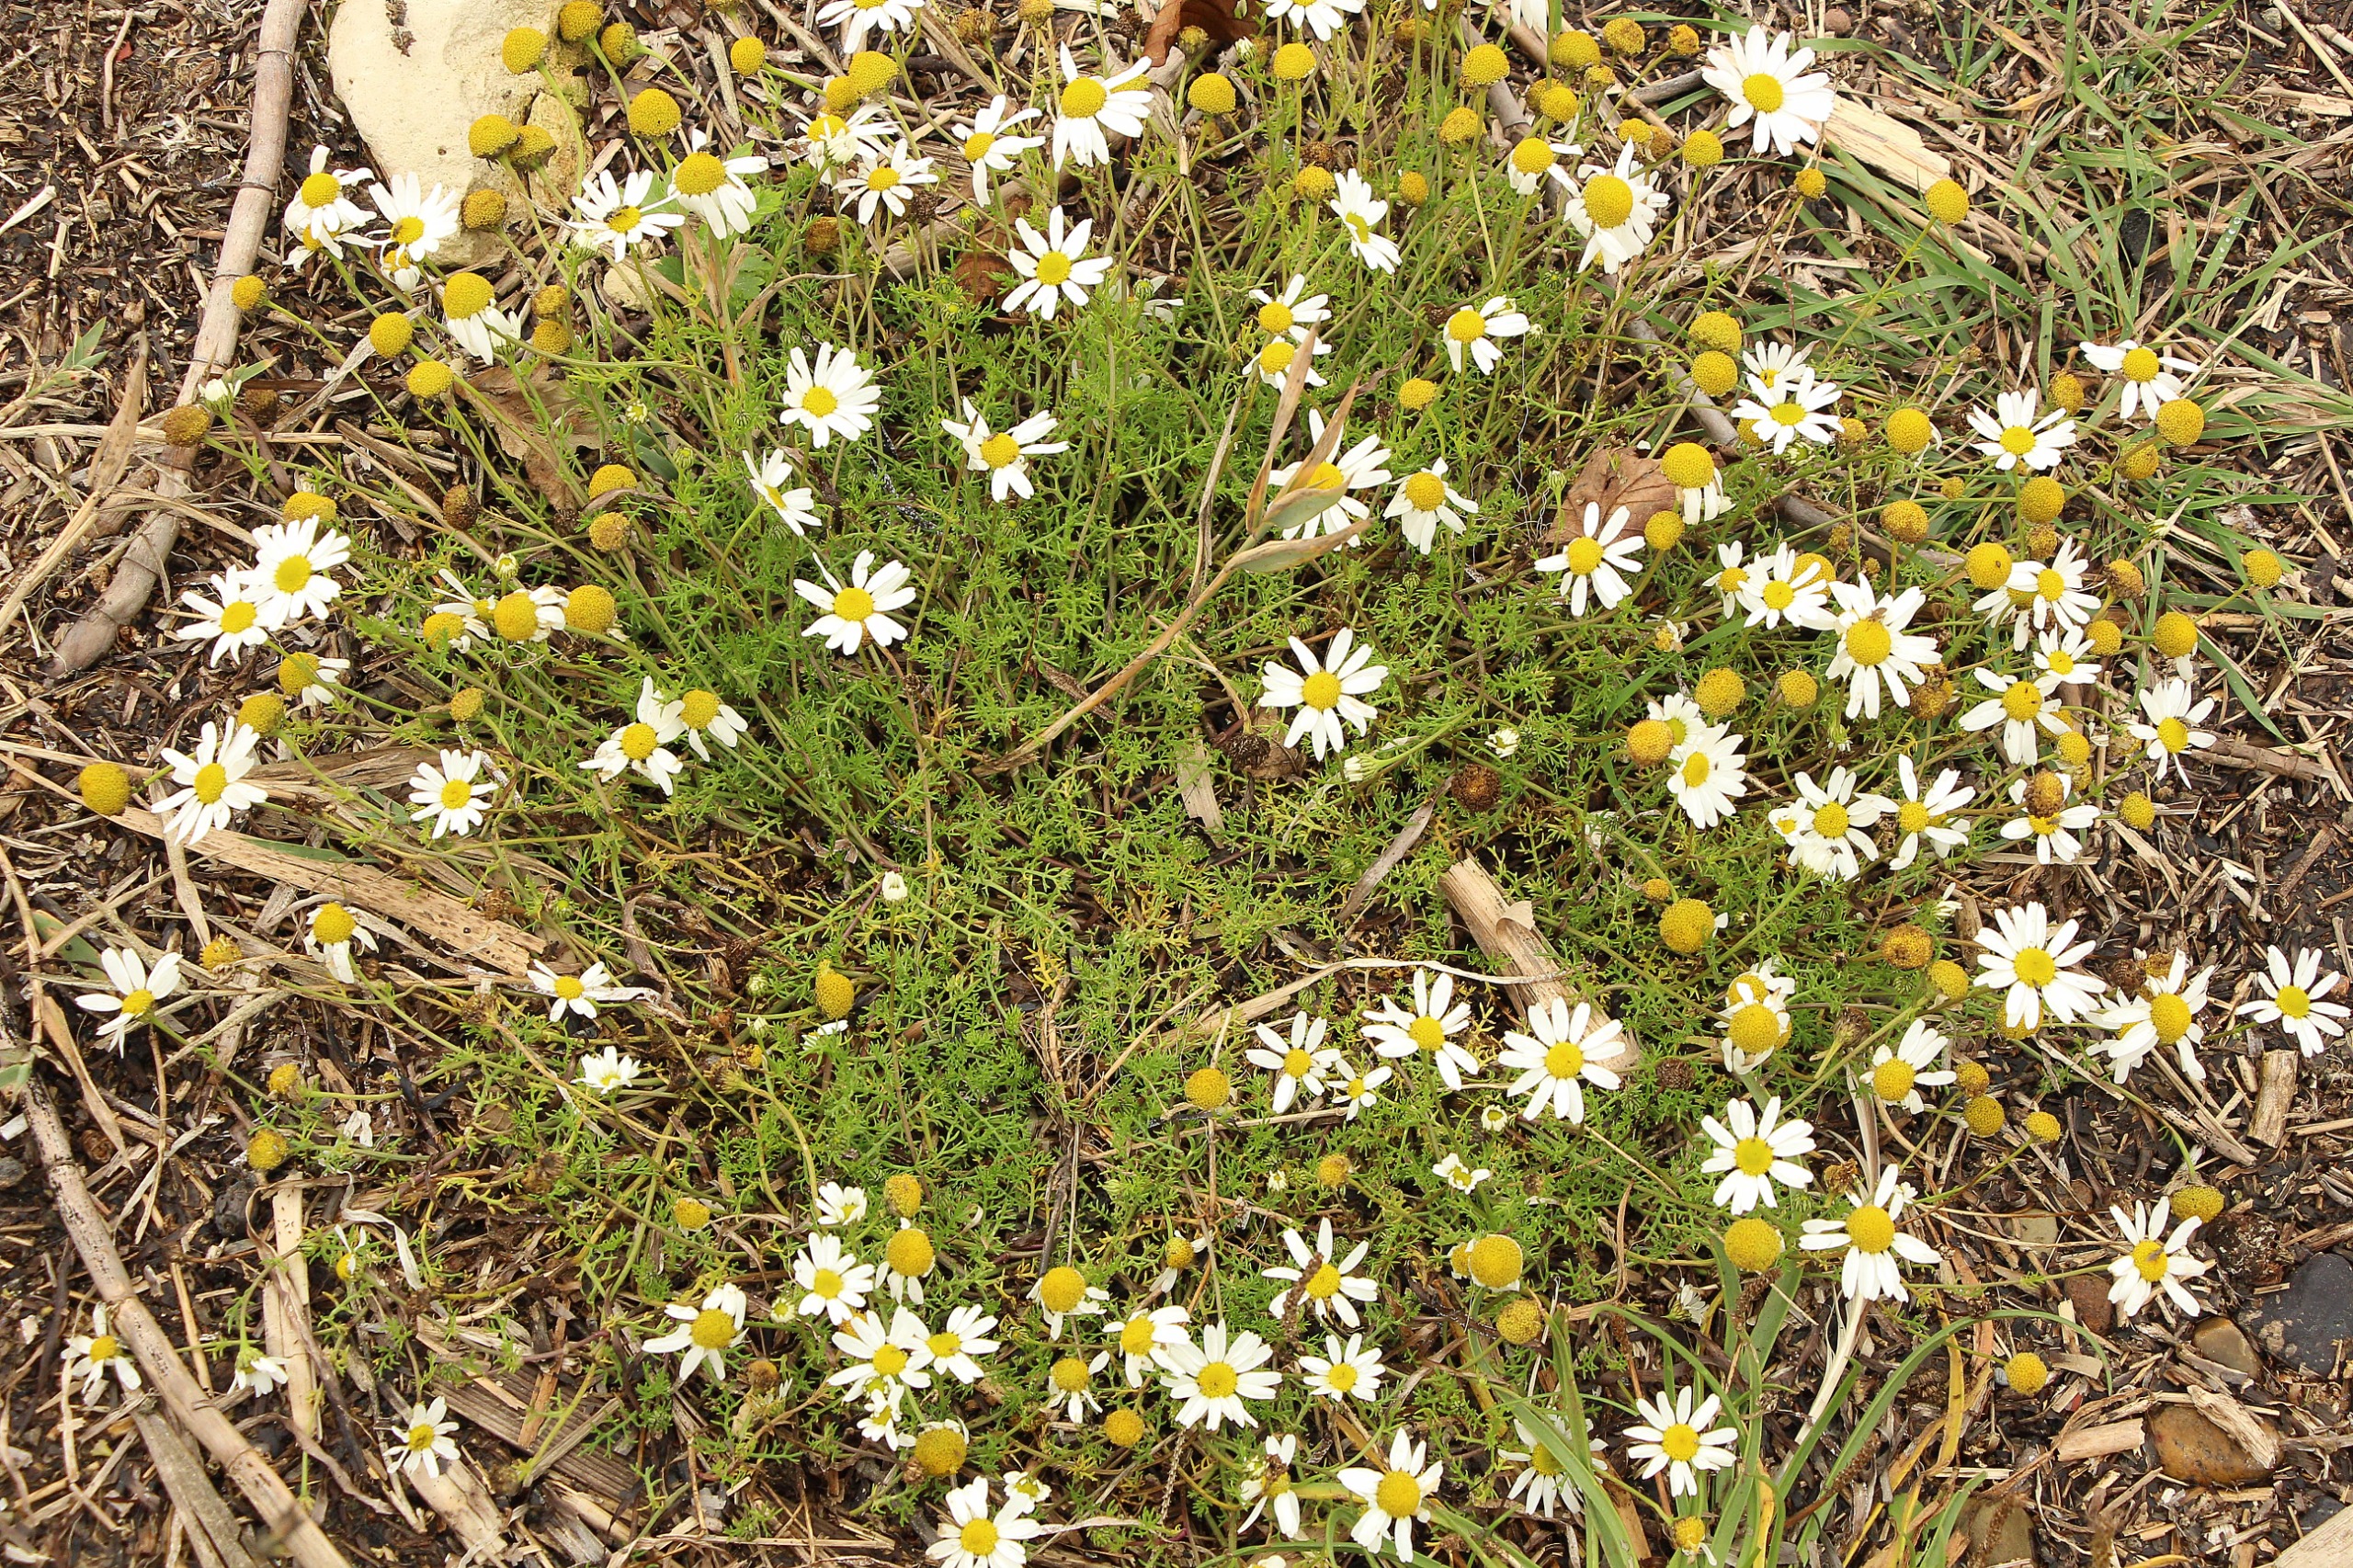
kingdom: Plantae
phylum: Tracheophyta
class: Magnoliopsida
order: Asterales
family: Asteraceae
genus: Tripleurospermum
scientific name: Tripleurospermum maritimum
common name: Strand-kamille
